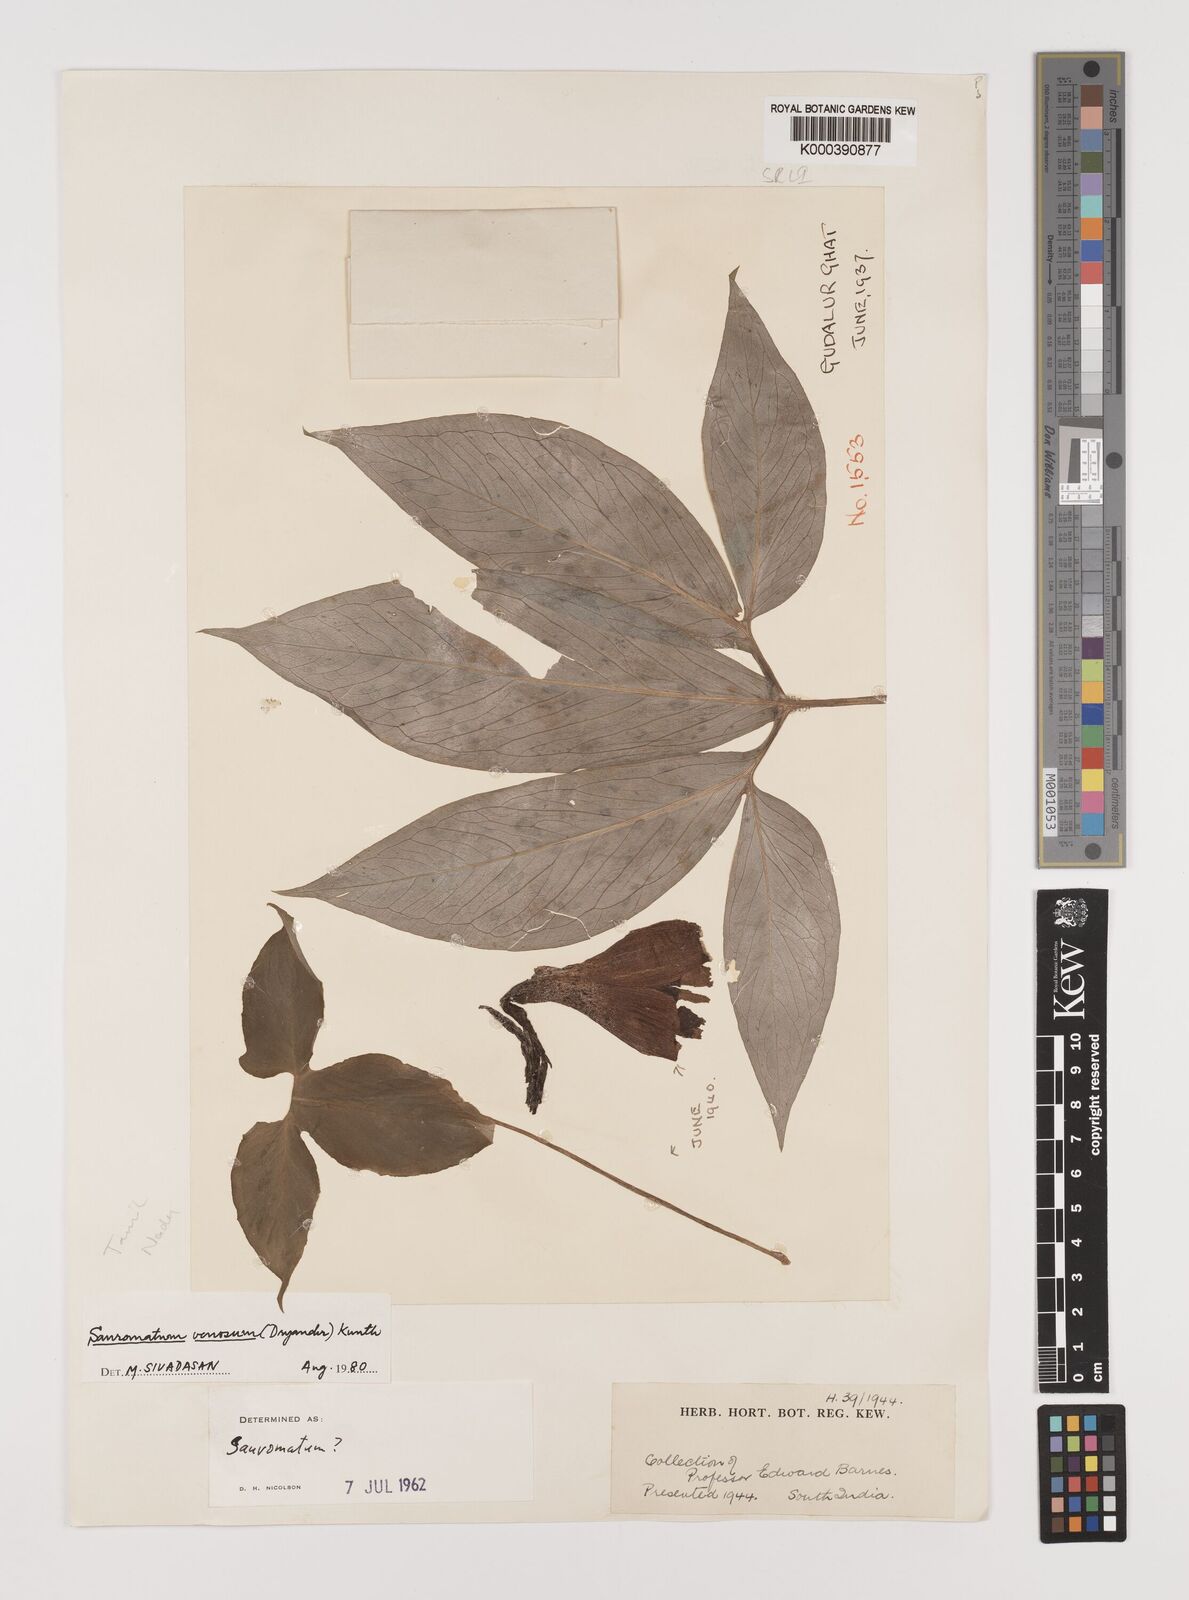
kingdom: Plantae
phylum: Tracheophyta
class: Liliopsida
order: Alismatales
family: Araceae
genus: Sauromatum
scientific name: Sauromatum venosum
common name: Voodoo lily
